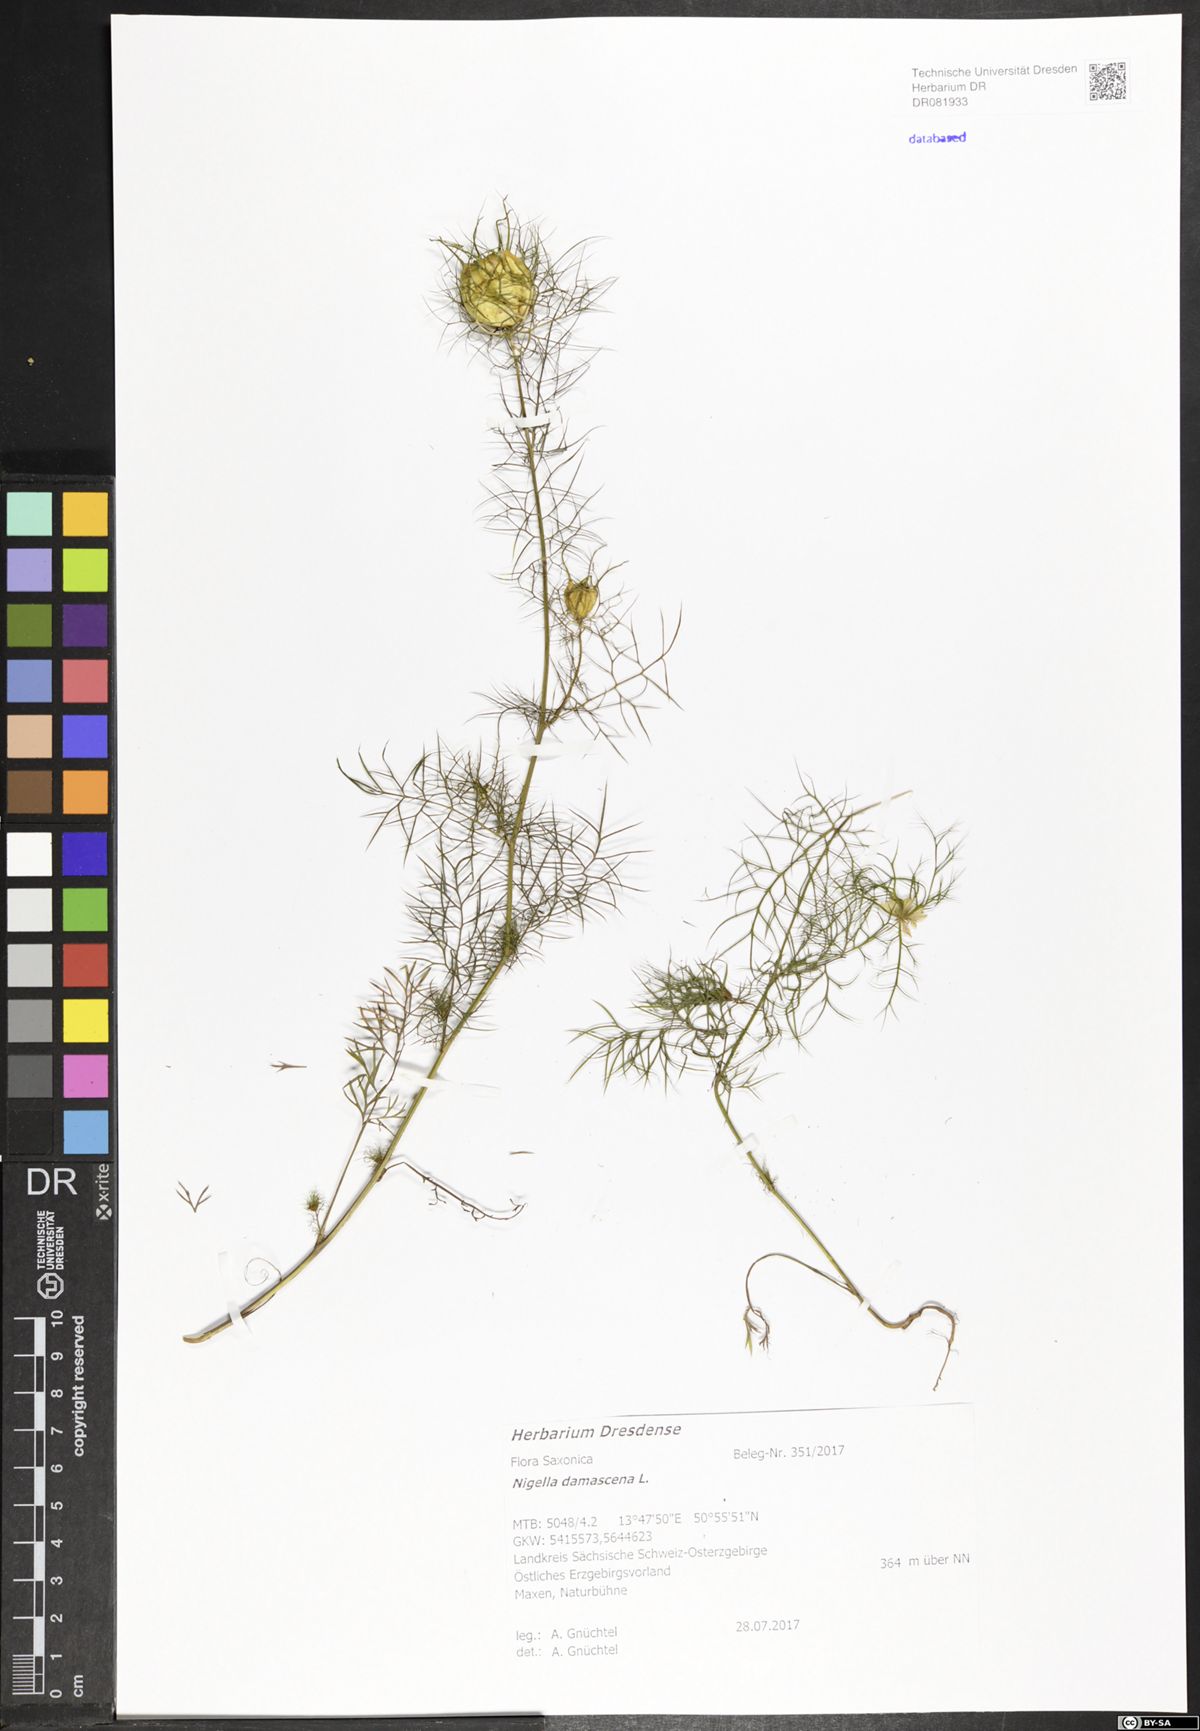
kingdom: Plantae
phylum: Tracheophyta
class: Magnoliopsida
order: Ranunculales
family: Ranunculaceae
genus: Nigella
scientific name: Nigella damascena
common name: Love-in-a-mist
